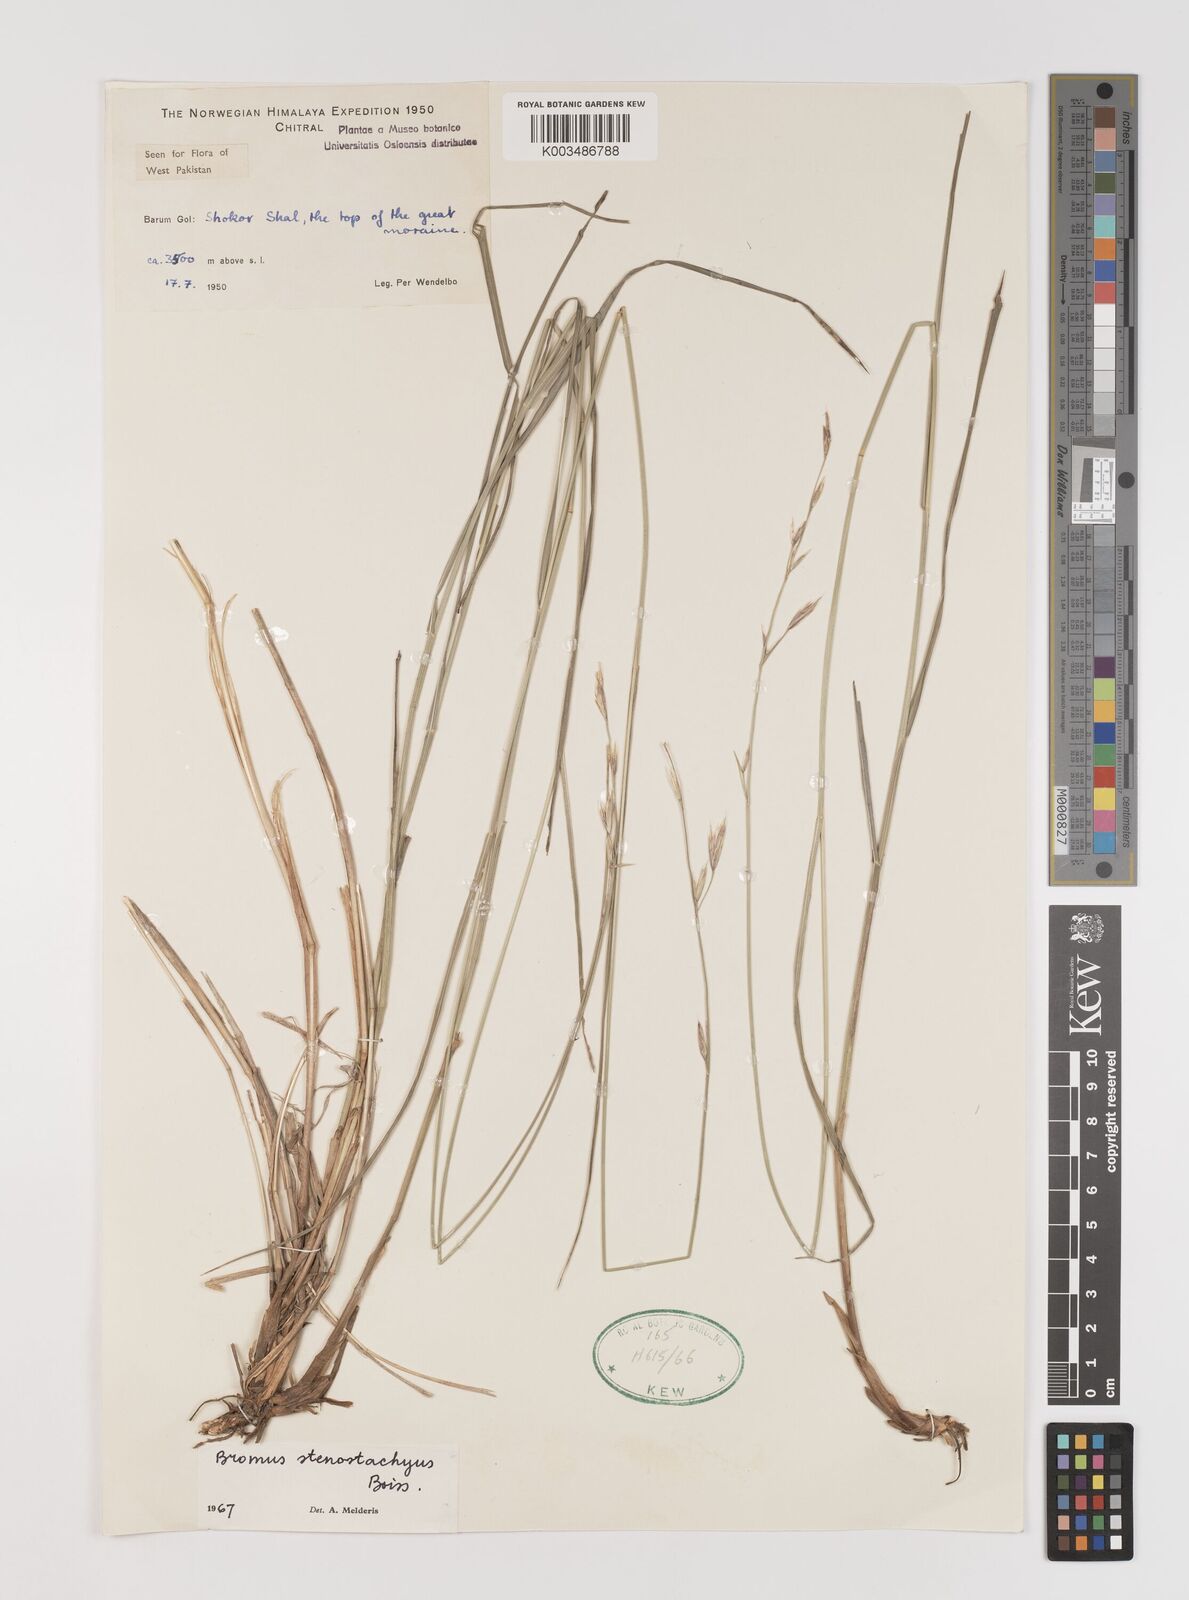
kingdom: Plantae
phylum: Tracheophyta
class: Liliopsida
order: Poales
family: Poaceae
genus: Bromus
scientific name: Bromus stenostachyus
